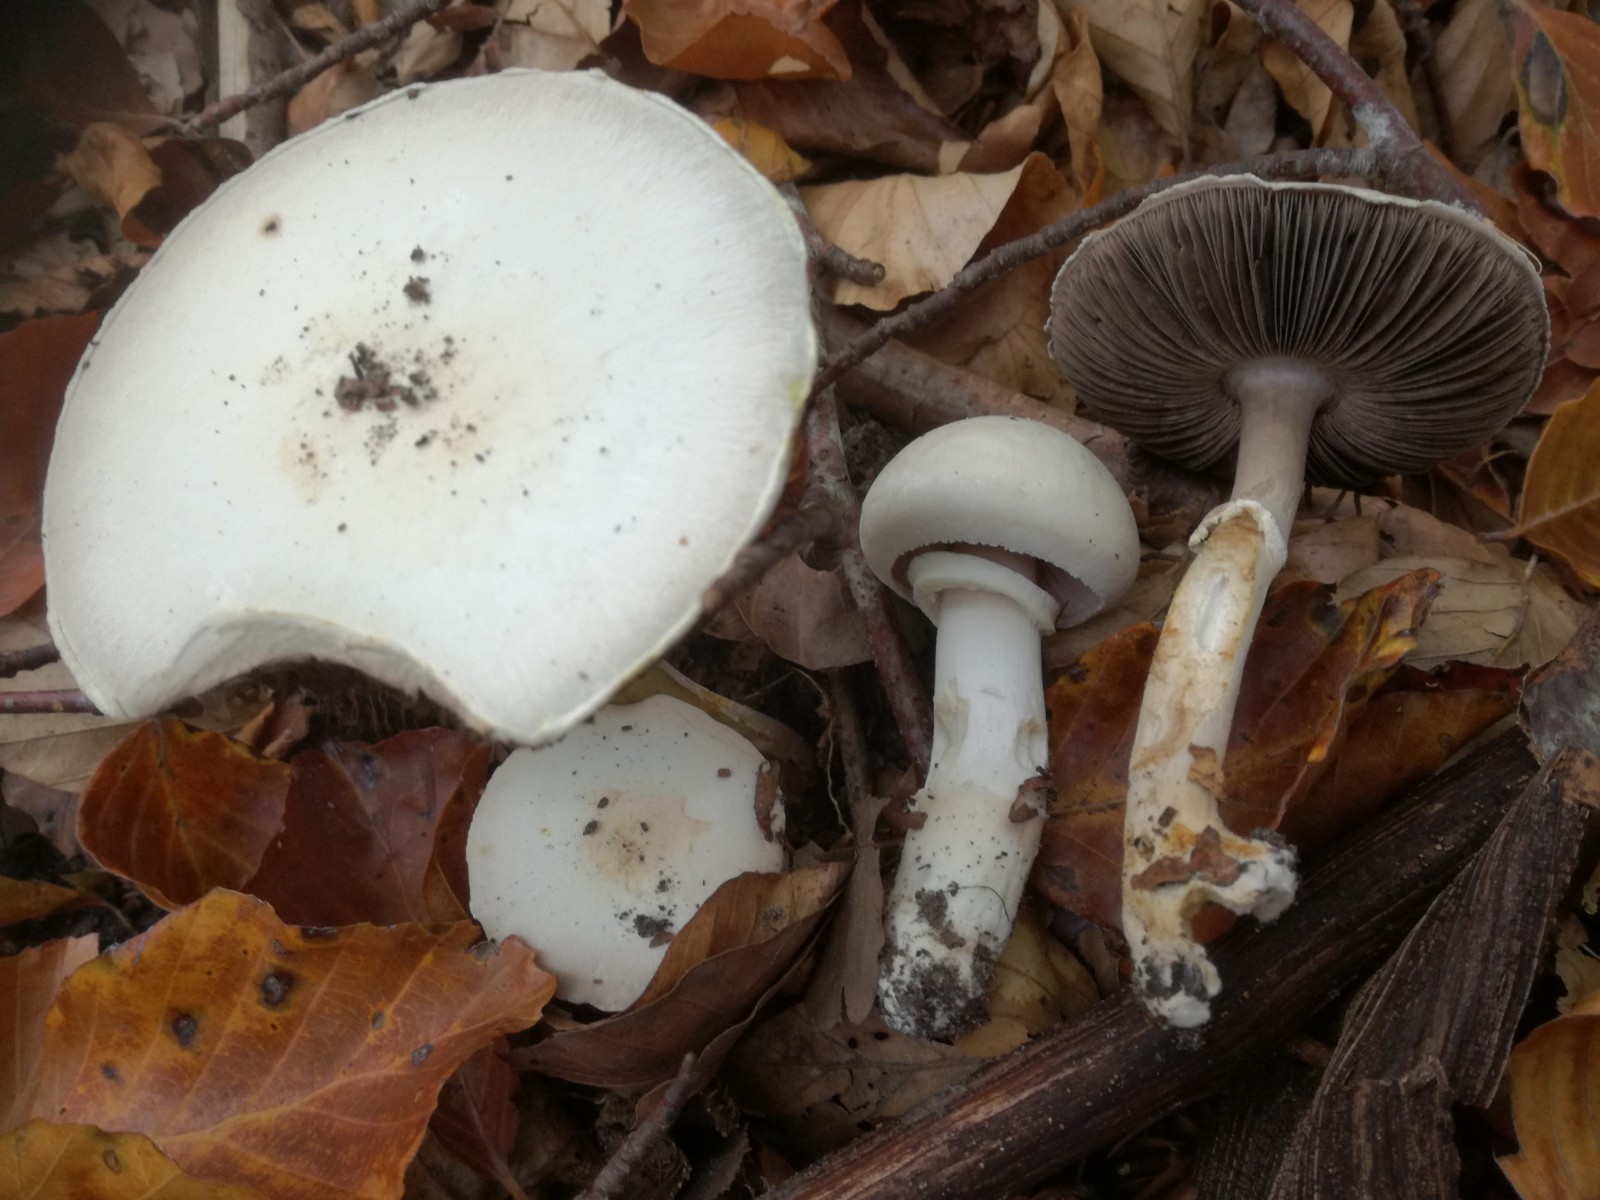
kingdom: Fungi
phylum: Basidiomycota
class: Agaricomycetes
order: Agaricales
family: Agaricaceae
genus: Agaricus
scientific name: Agaricus altipes
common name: sommer-champignon
